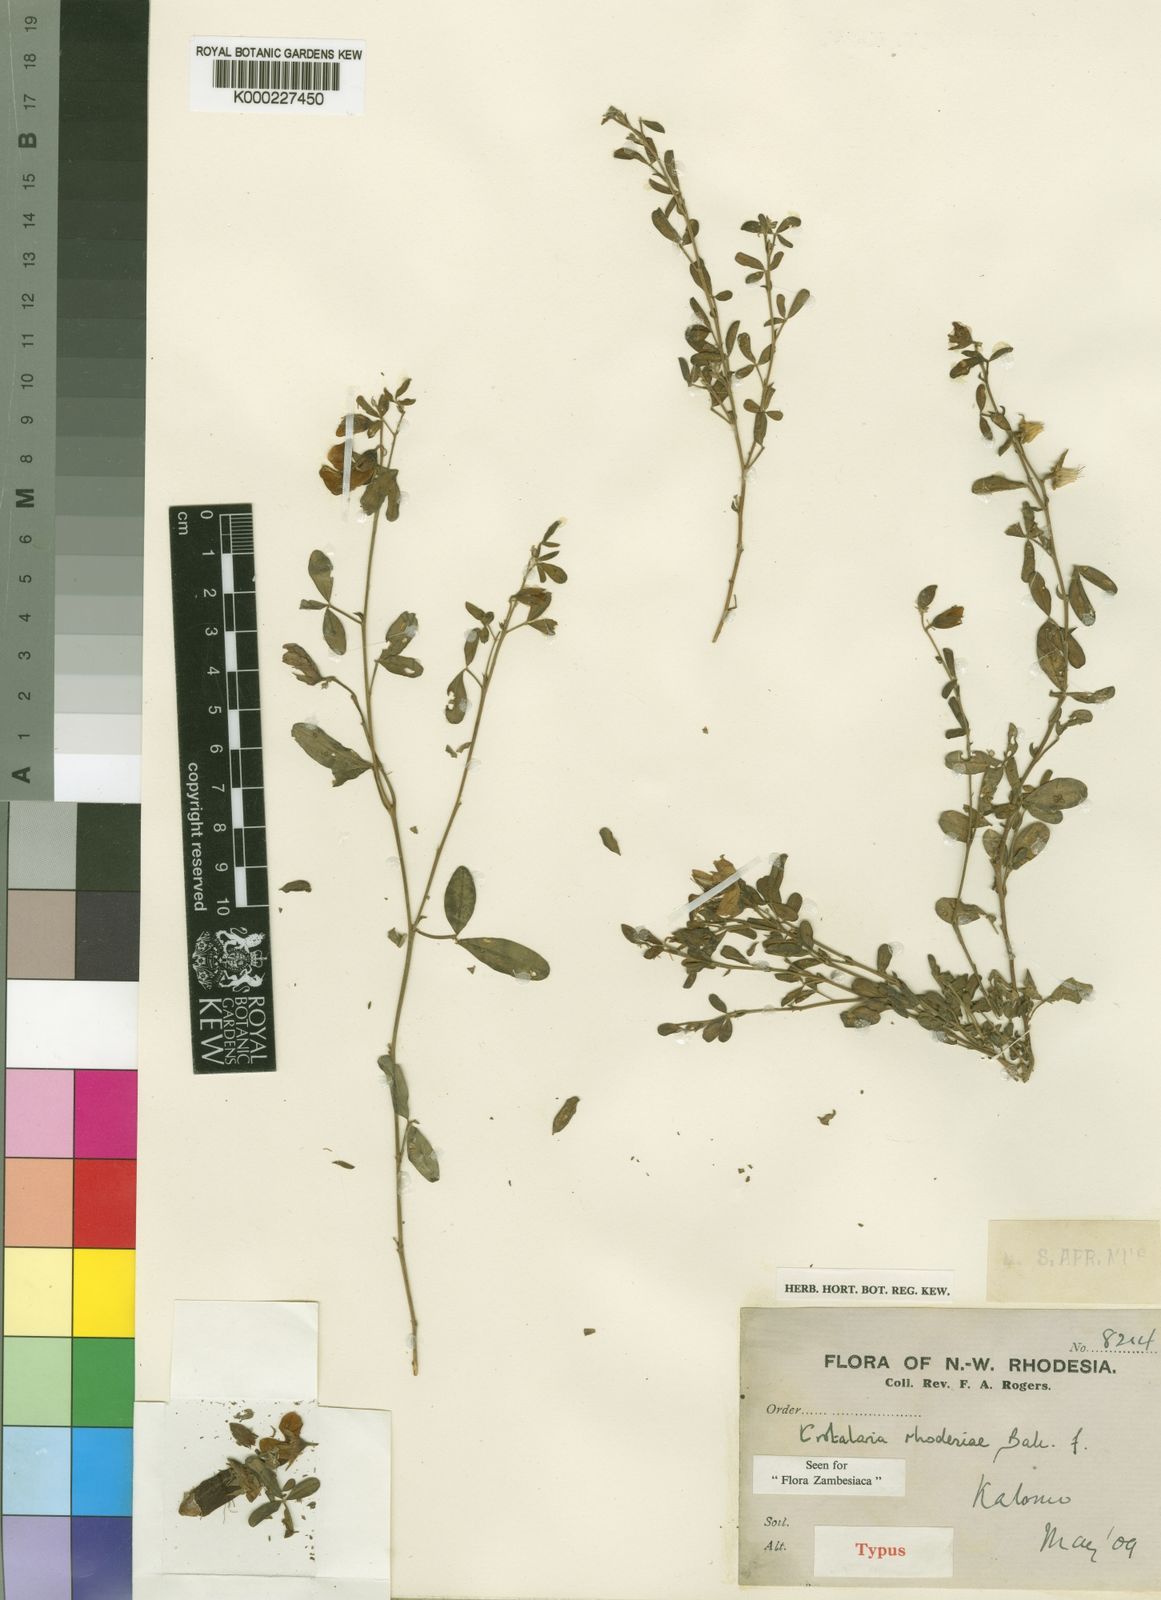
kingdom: Plantae
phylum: Tracheophyta
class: Magnoliopsida
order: Fabales
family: Fabaceae
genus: Crotalaria
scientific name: Crotalaria rhodesiae
